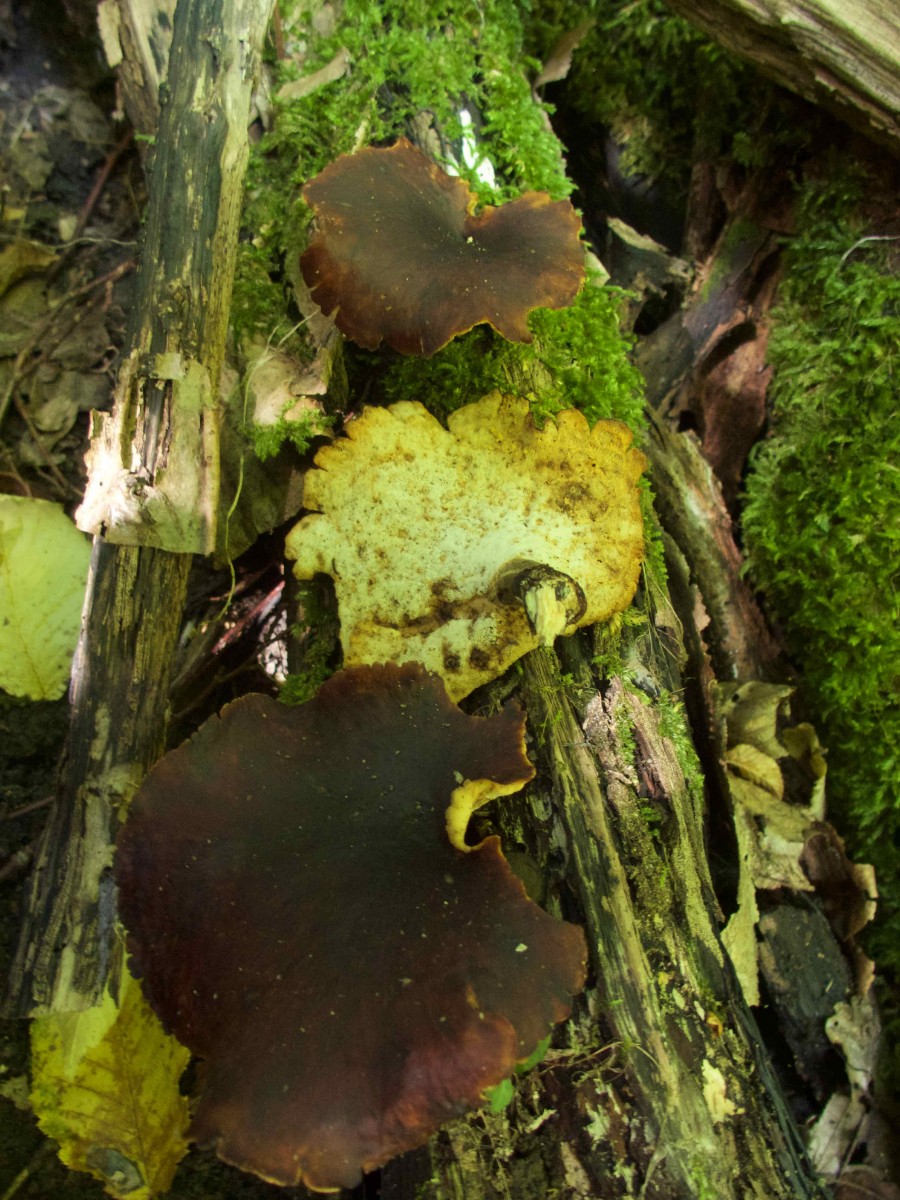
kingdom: Fungi
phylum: Basidiomycota
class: Agaricomycetes
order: Polyporales
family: Polyporaceae
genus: Picipes
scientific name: Picipes badius
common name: kastaniebrun stilkporesvamp
